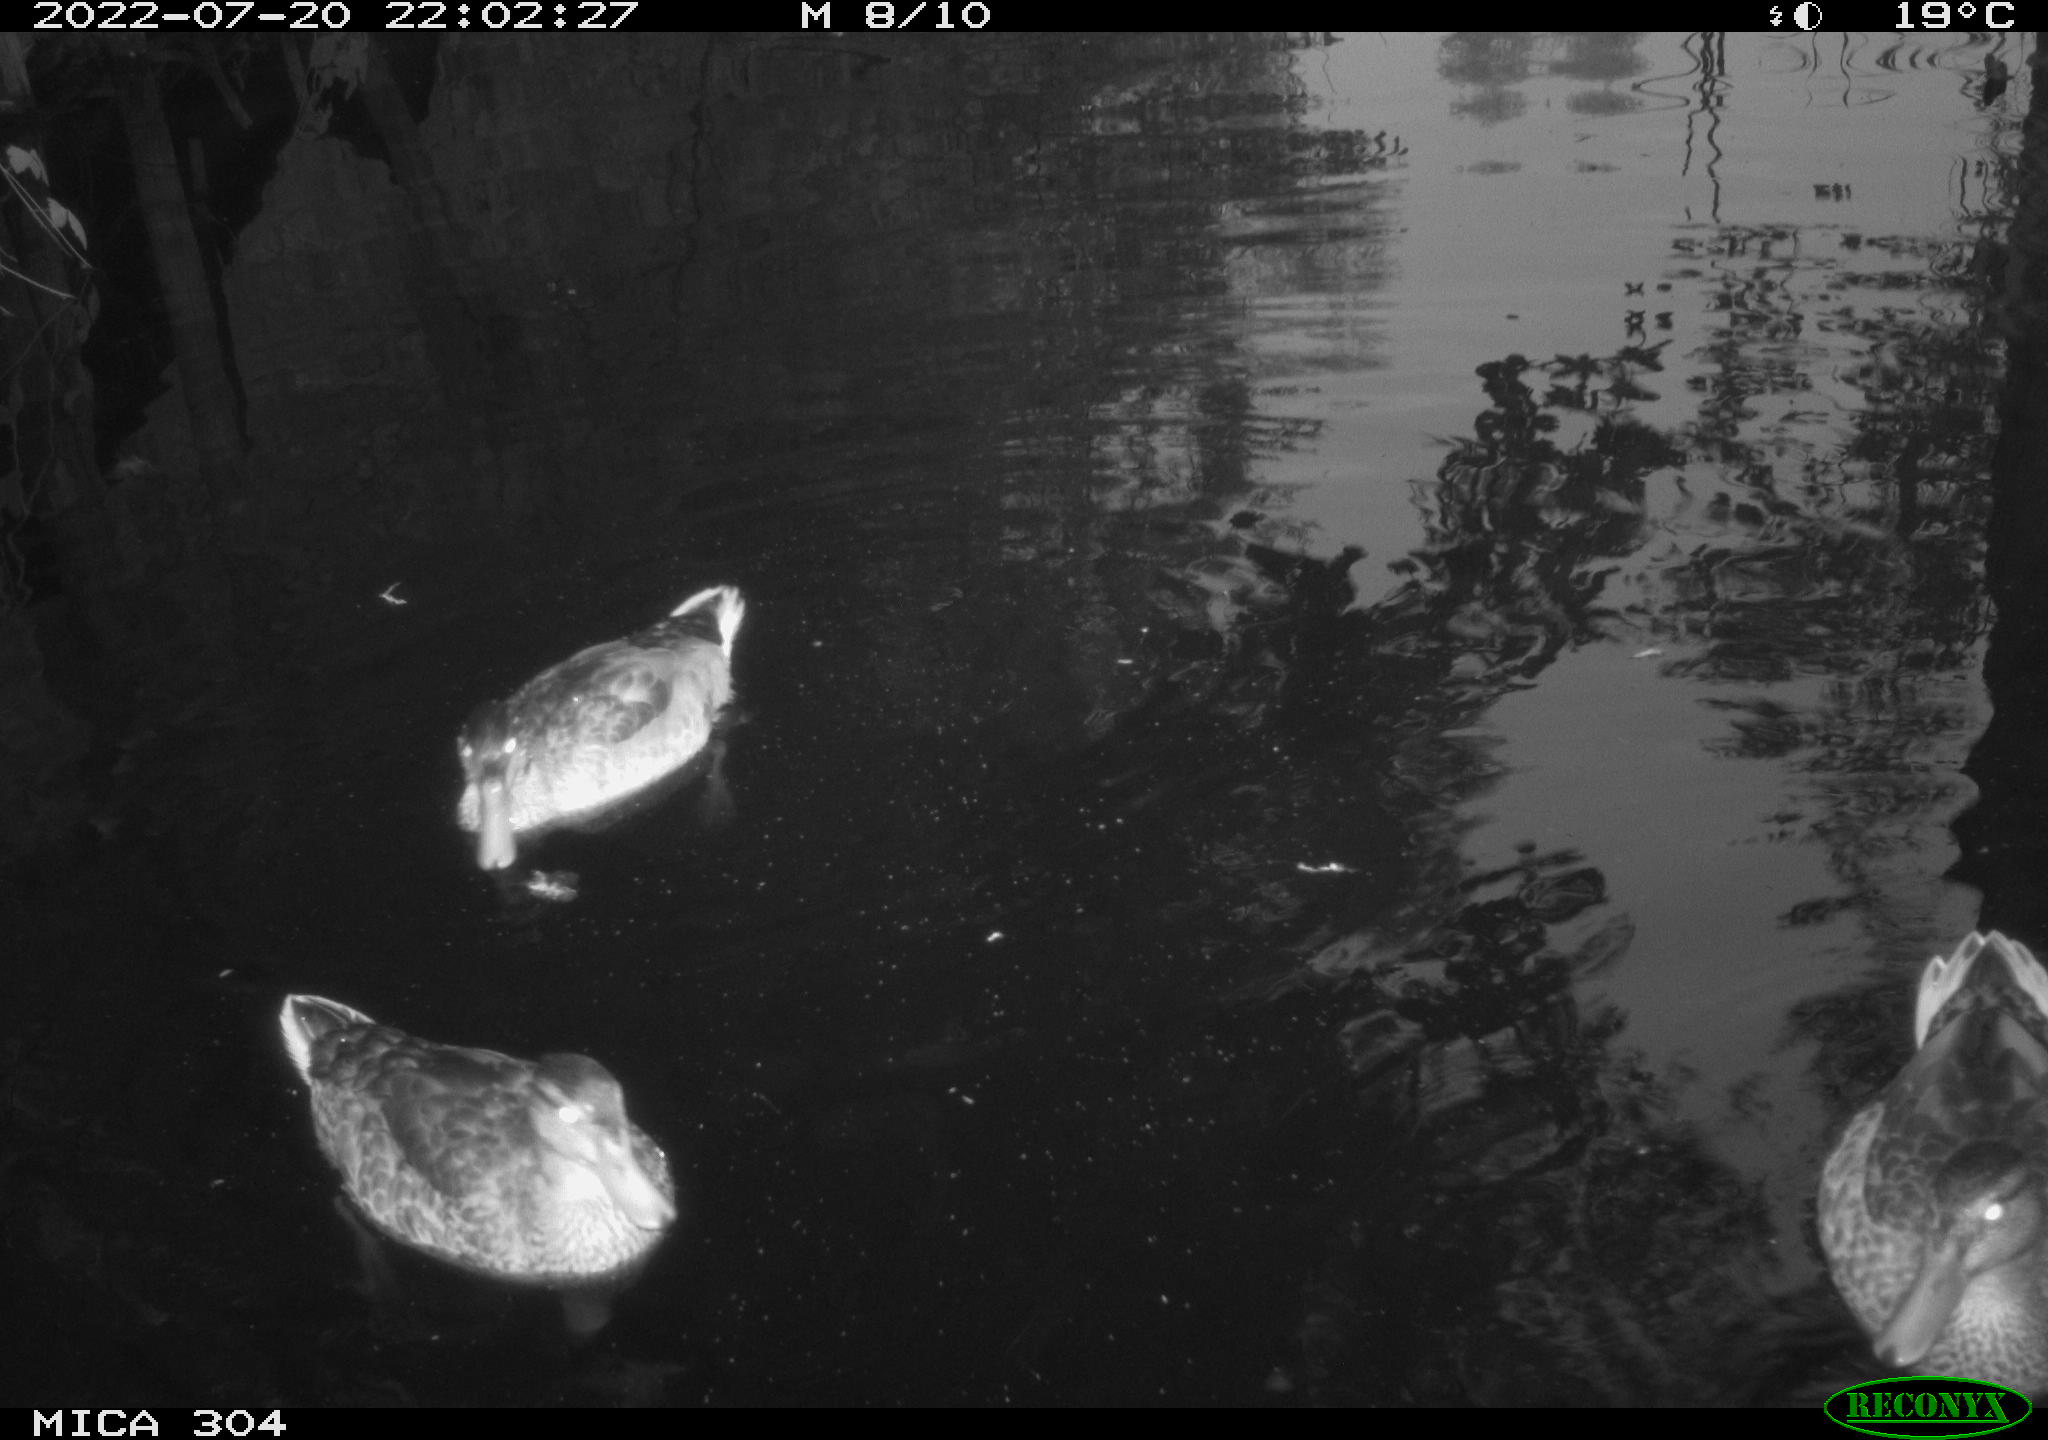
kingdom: Animalia
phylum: Chordata
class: Aves
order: Anseriformes
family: Anatidae
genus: Mareca
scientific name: Mareca strepera
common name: Gadwall
